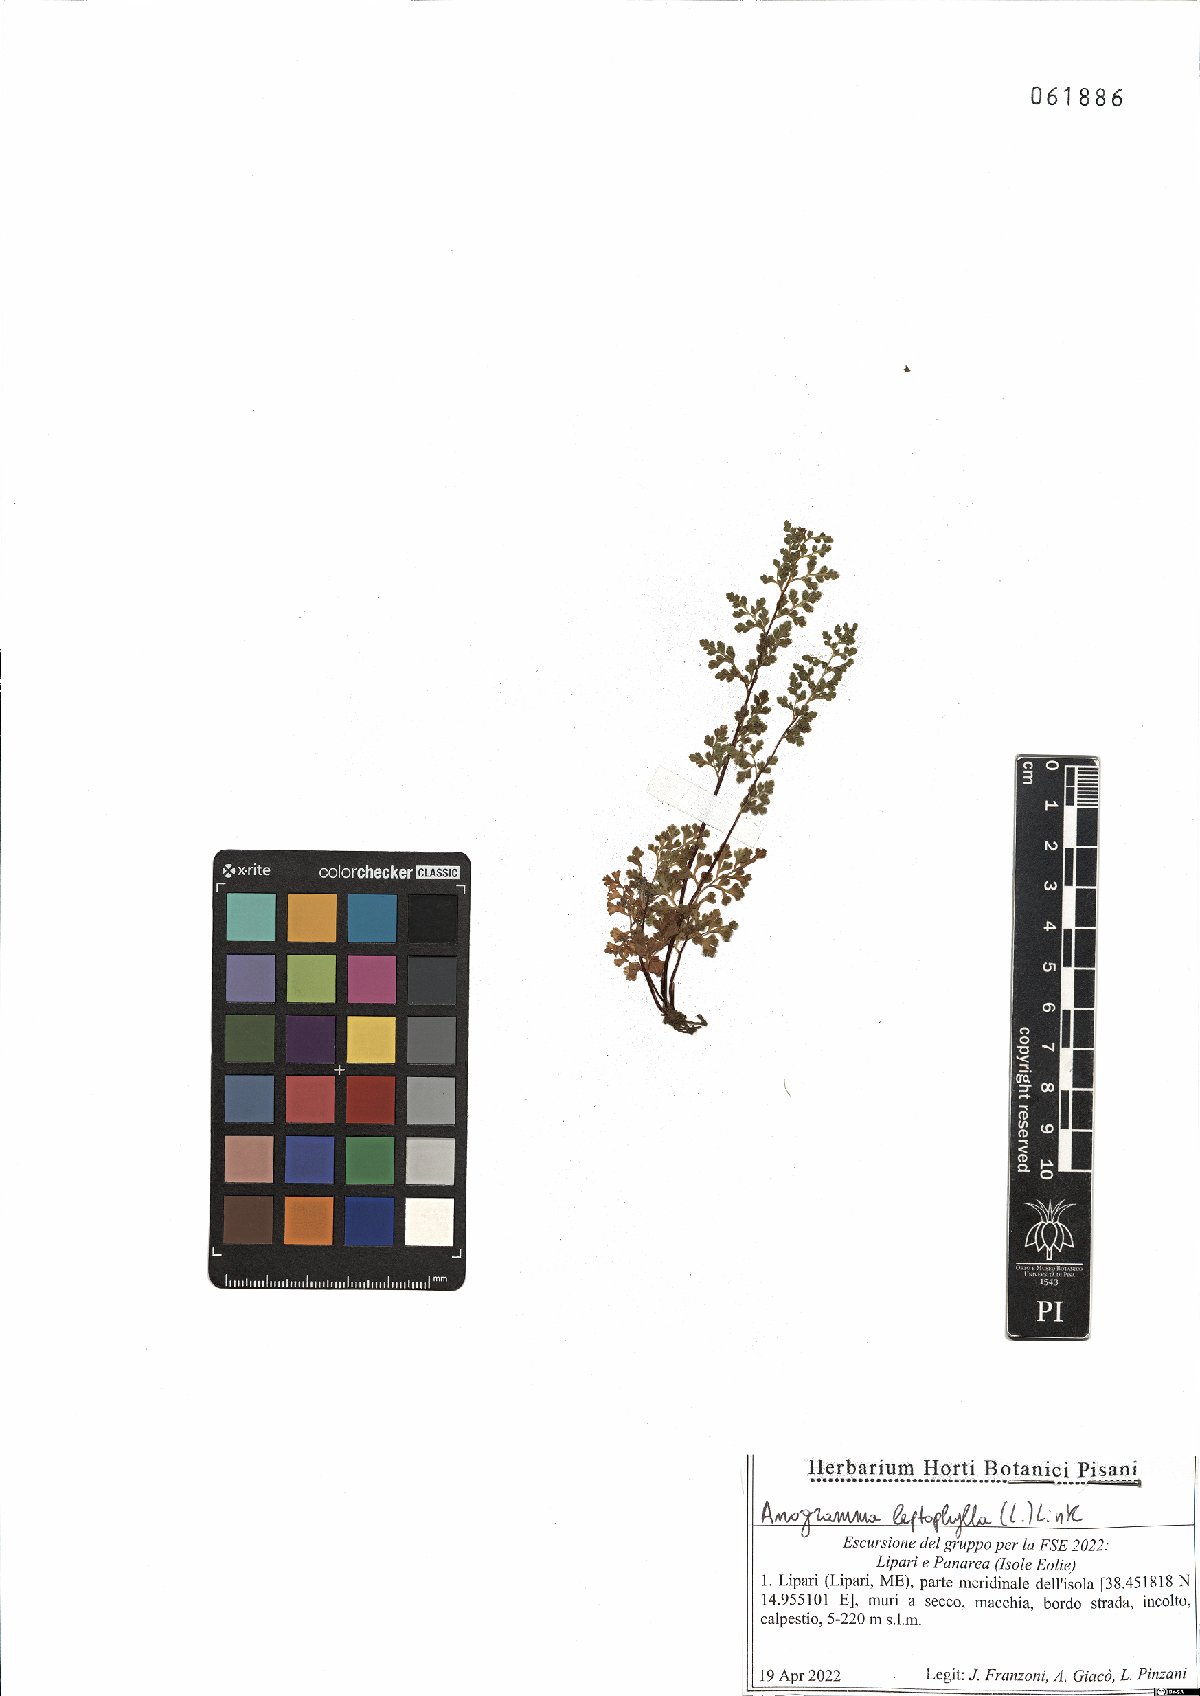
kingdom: Plantae
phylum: Tracheophyta
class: Polypodiopsida
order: Polypodiales
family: Pteridaceae
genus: Anogramma
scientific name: Anogramma leptophylla
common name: Jersey fern
